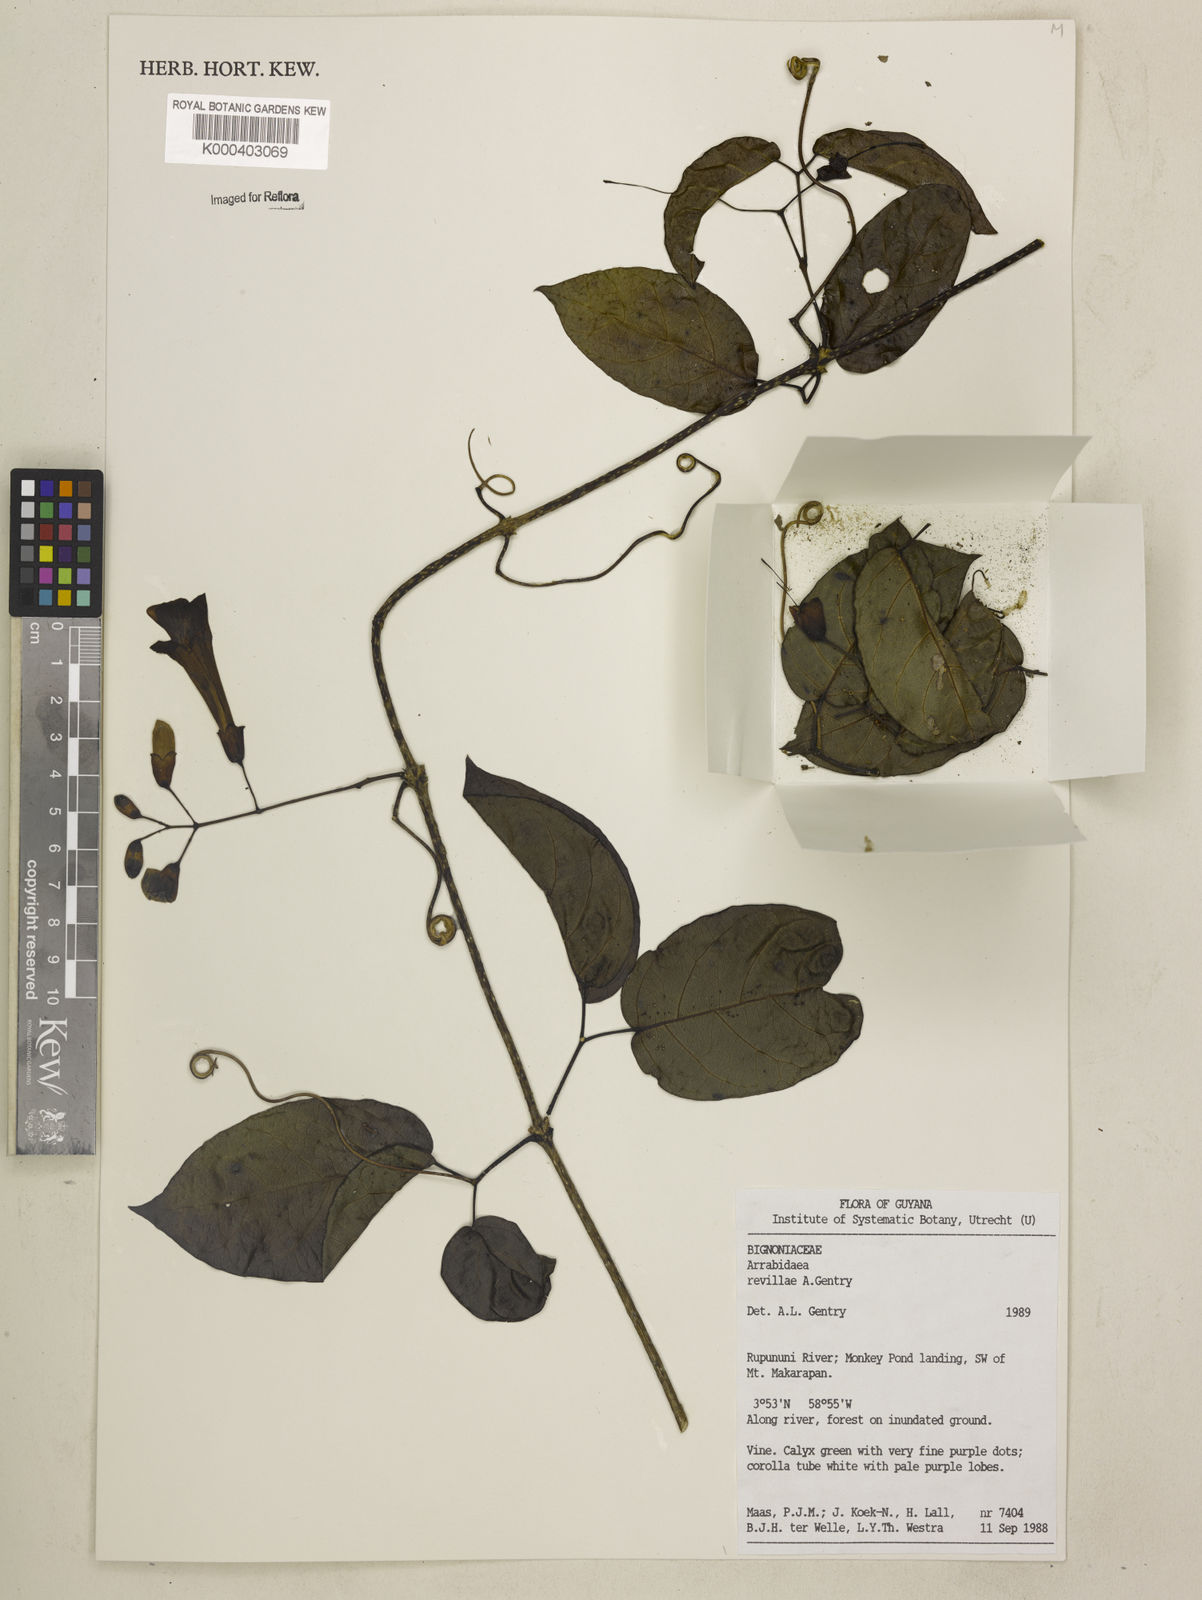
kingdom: Plantae
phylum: Tracheophyta
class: Magnoliopsida
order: Lamiales
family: Bignoniaceae
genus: Tanaecium
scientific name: Tanaecium revillae
